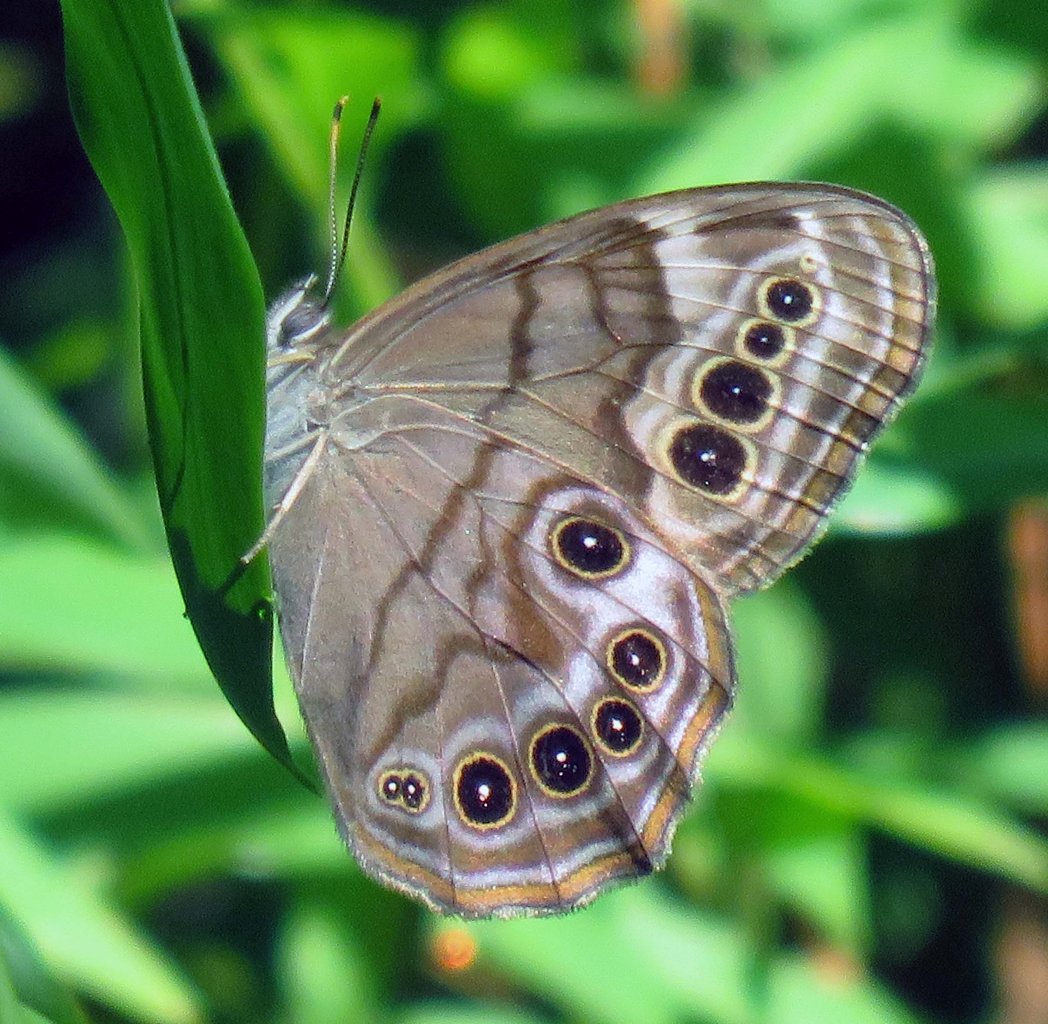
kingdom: Animalia
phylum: Arthropoda
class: Insecta
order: Lepidoptera
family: Nymphalidae
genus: Lethe
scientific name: Lethe anthedon
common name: Northern Pearly-Eye
